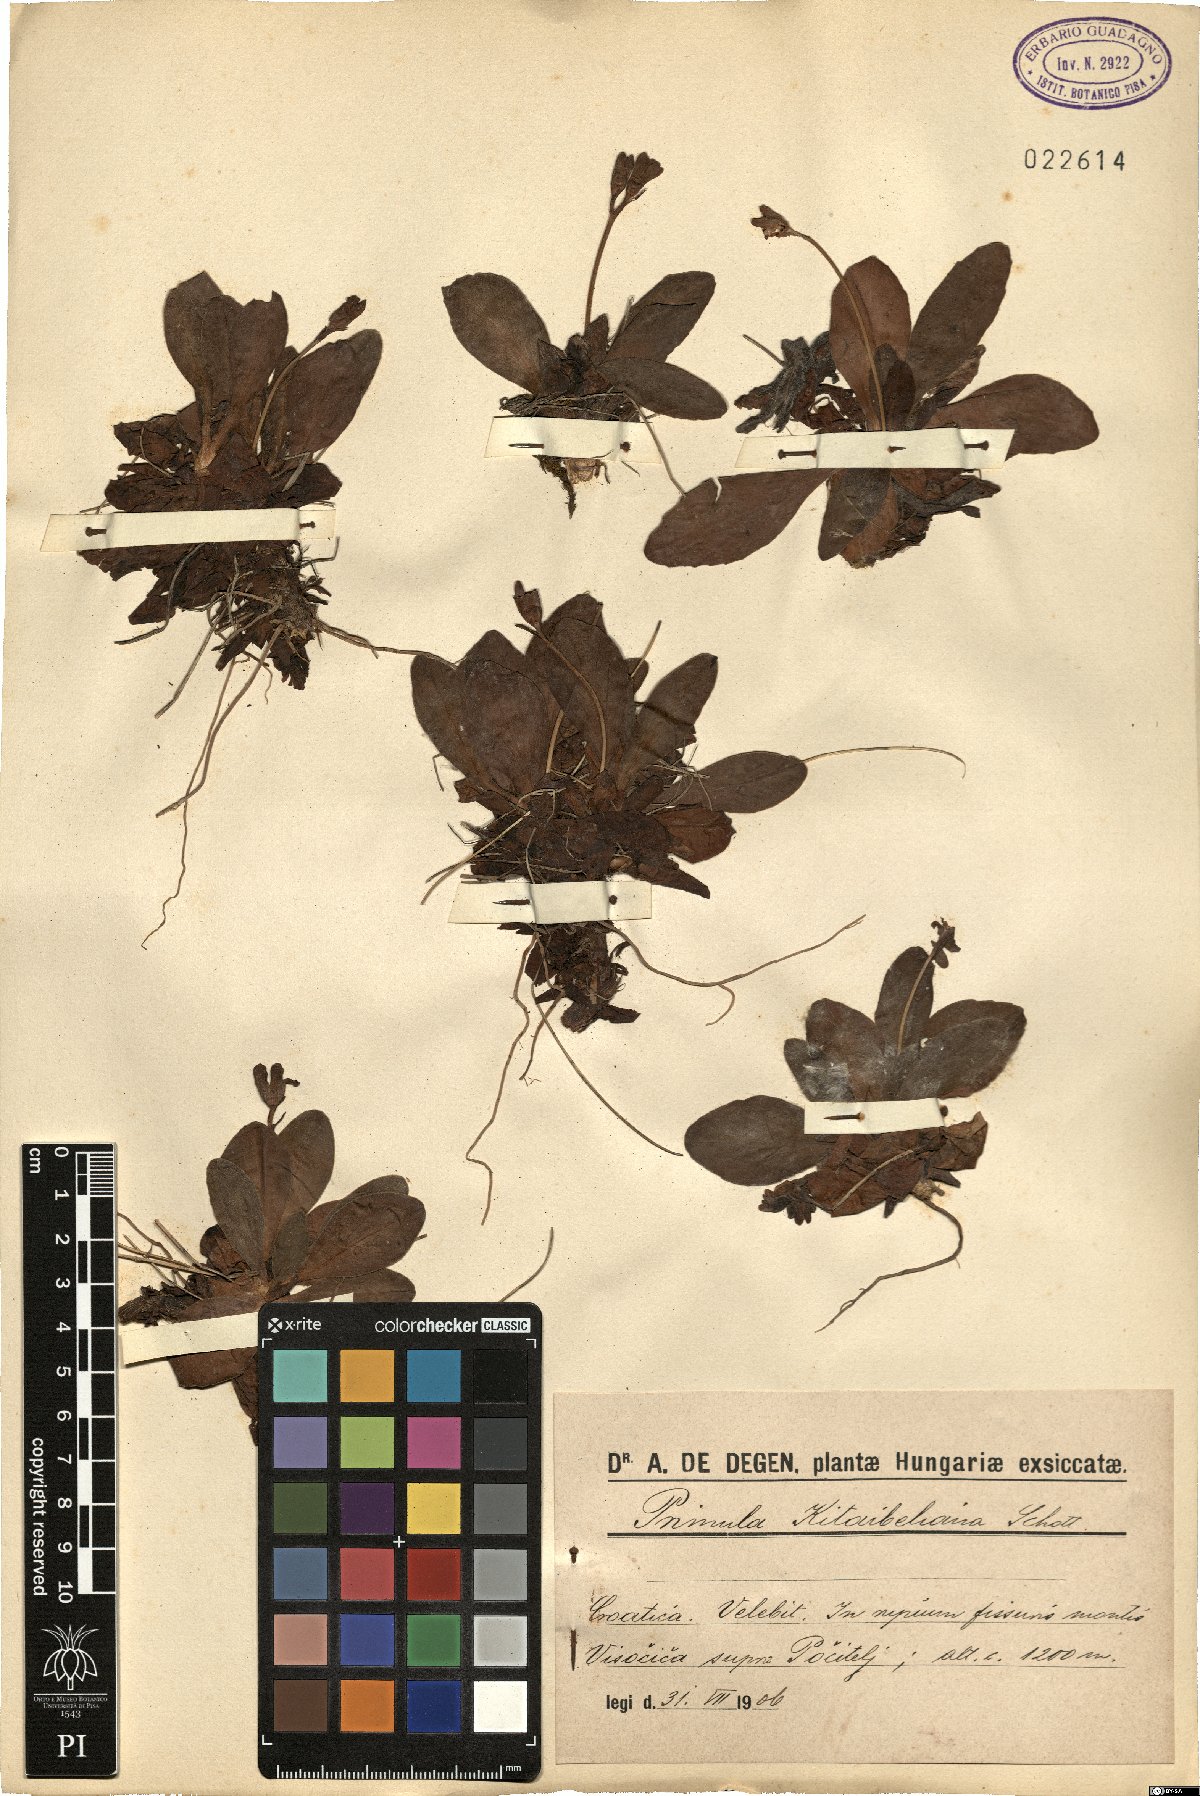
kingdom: Plantae
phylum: Tracheophyta
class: Magnoliopsida
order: Ericales
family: Primulaceae
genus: Primula
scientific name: Primula kitaibeliana
